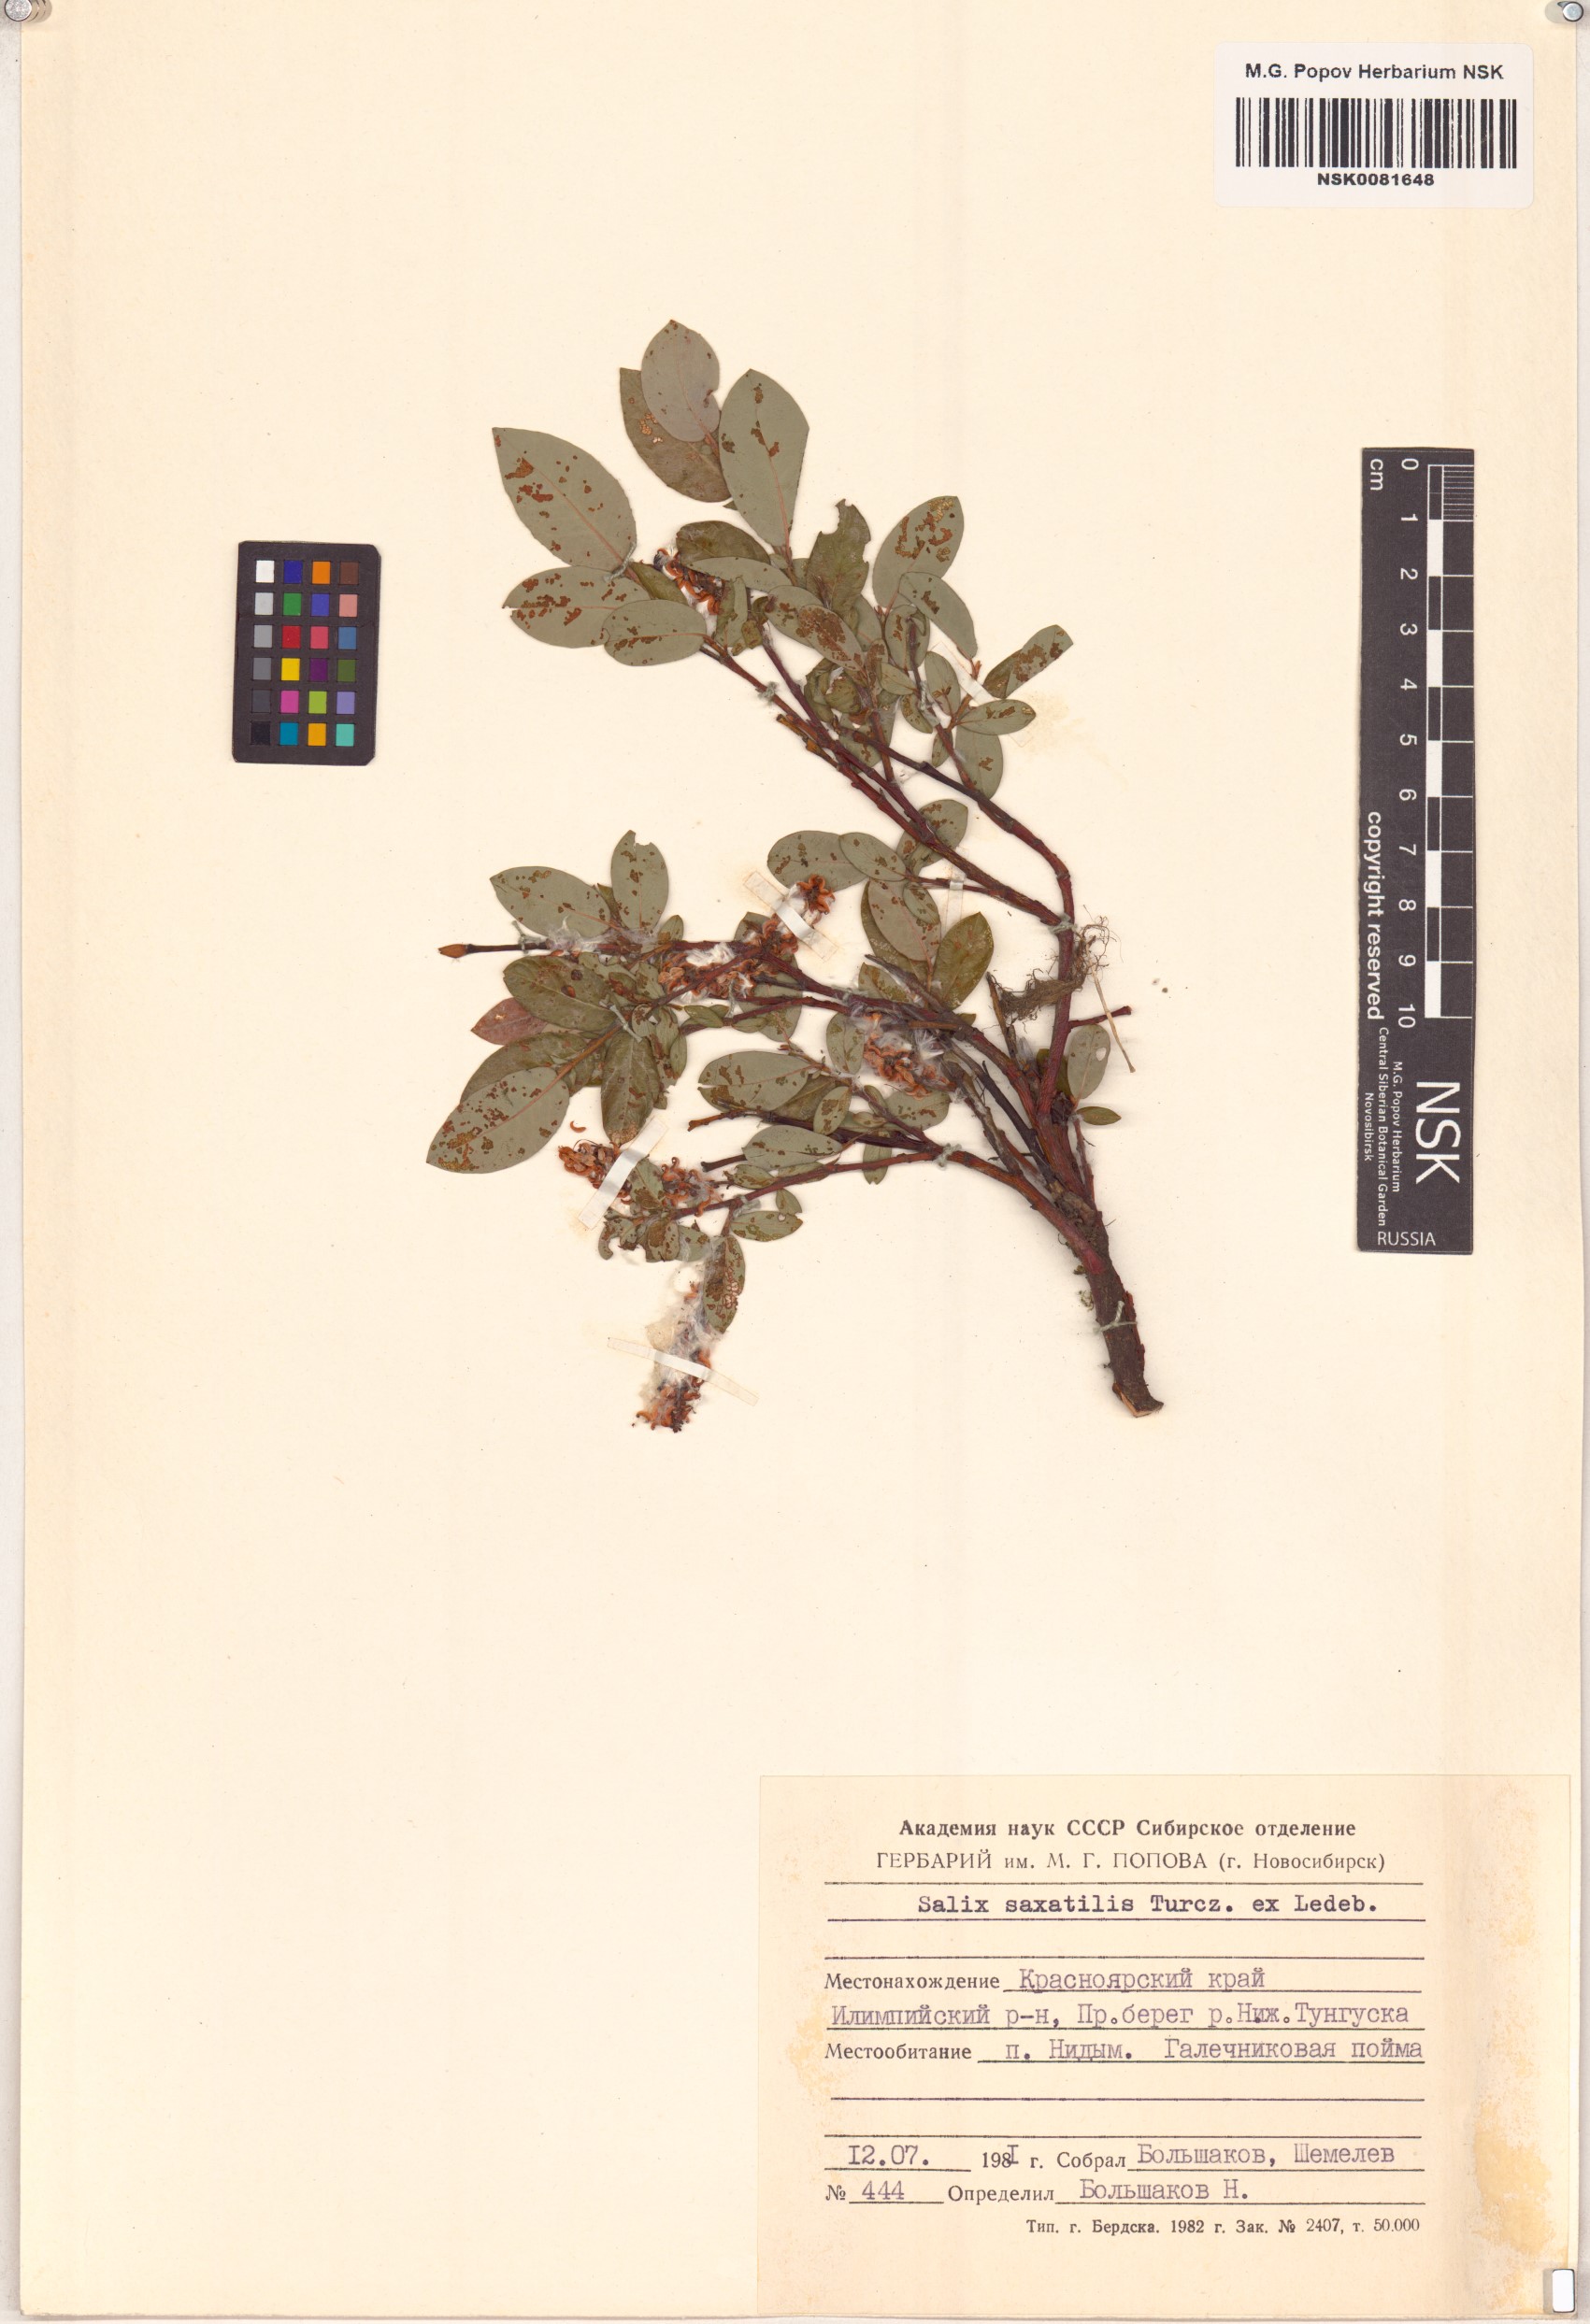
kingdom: Plantae
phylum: Tracheophyta
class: Magnoliopsida
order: Malpighiales
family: Salicaceae
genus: Salix
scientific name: Salix saxatilis
